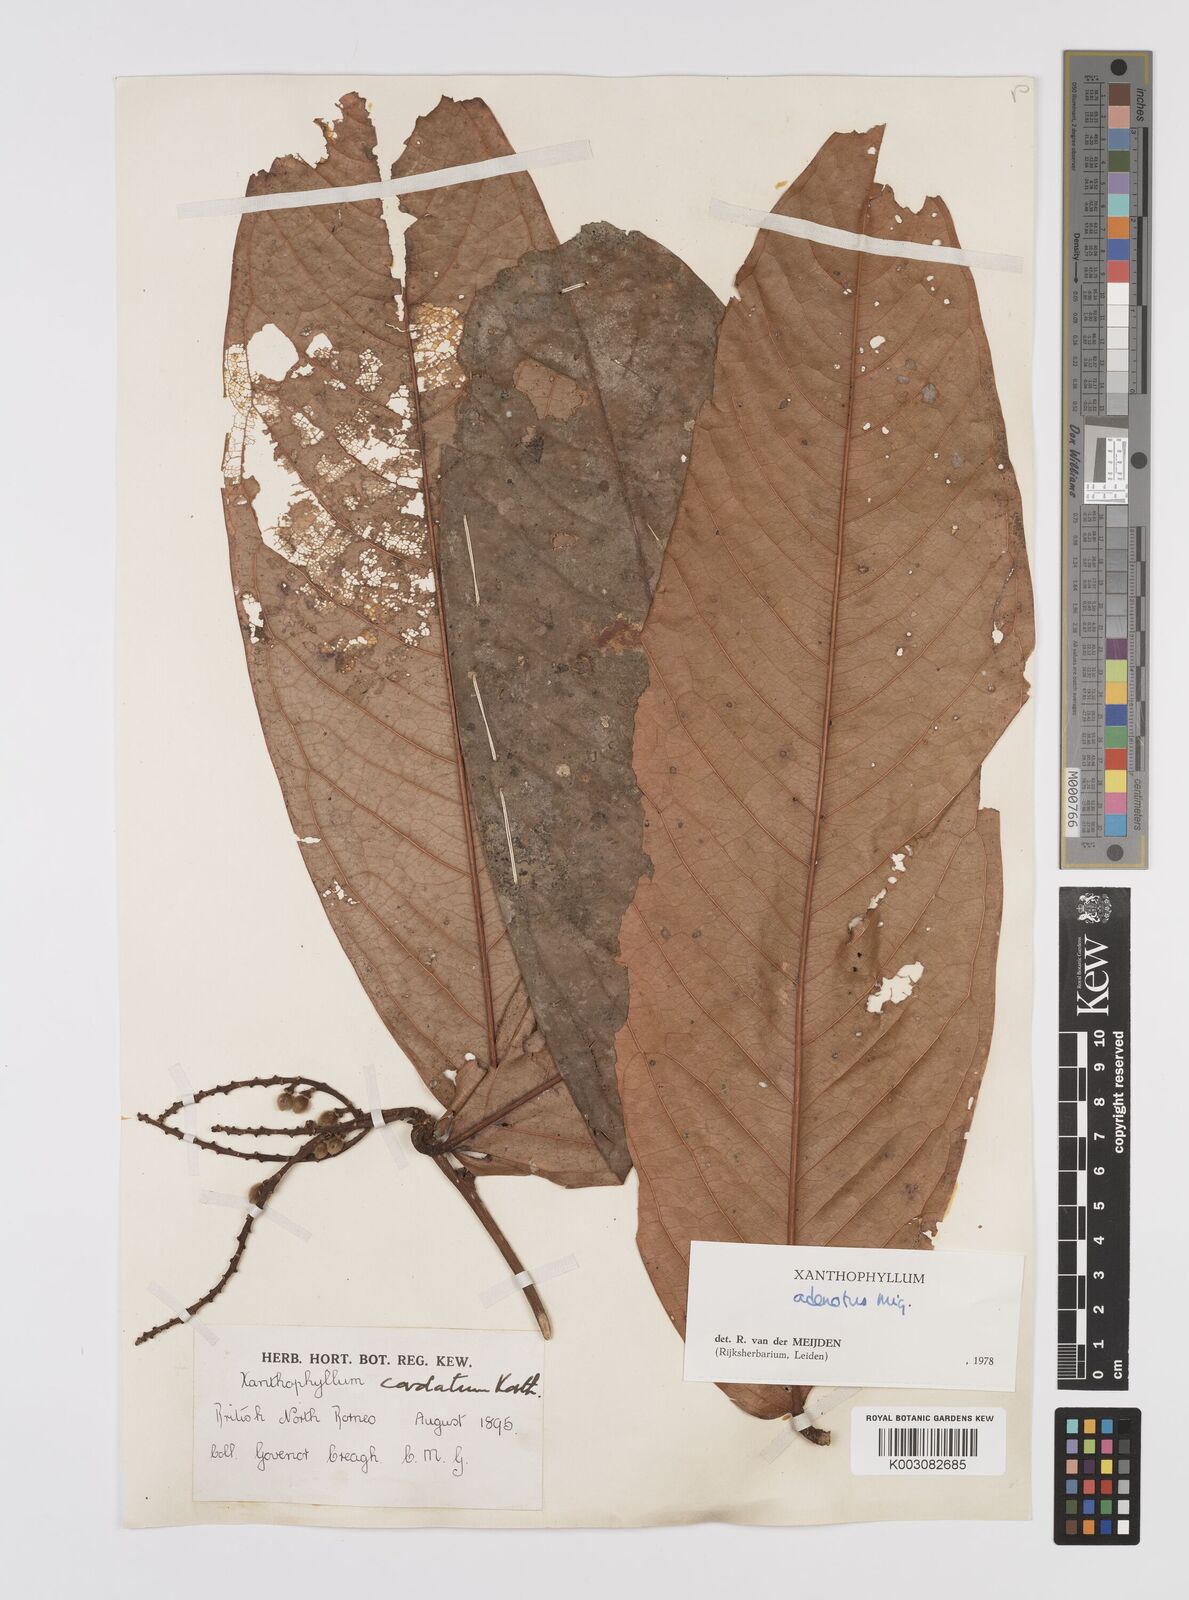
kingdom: Plantae
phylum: Tracheophyta
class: Magnoliopsida
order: Fabales
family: Polygalaceae
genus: Xanthophyllum
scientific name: Xanthophyllum adenotus
